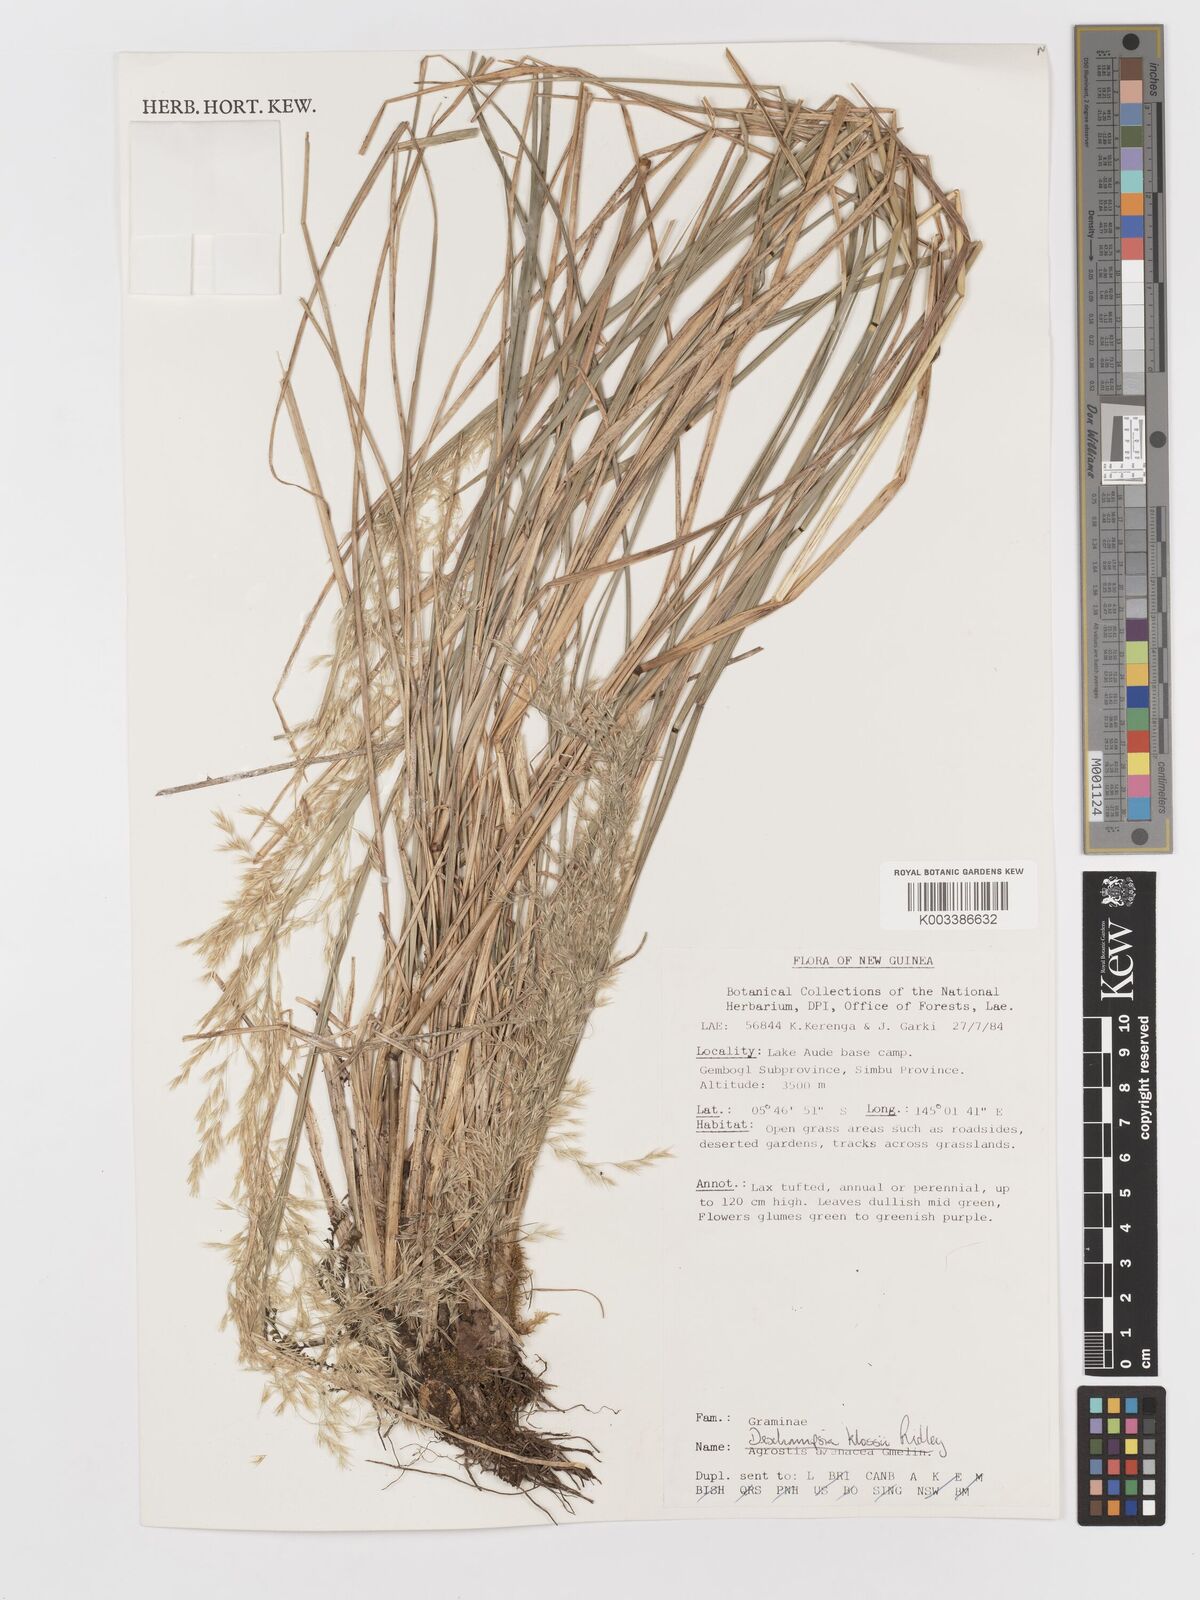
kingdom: Plantae
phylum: Tracheophyta
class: Liliopsida
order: Poales
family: Poaceae
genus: Deschampsia
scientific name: Deschampsia klossii
